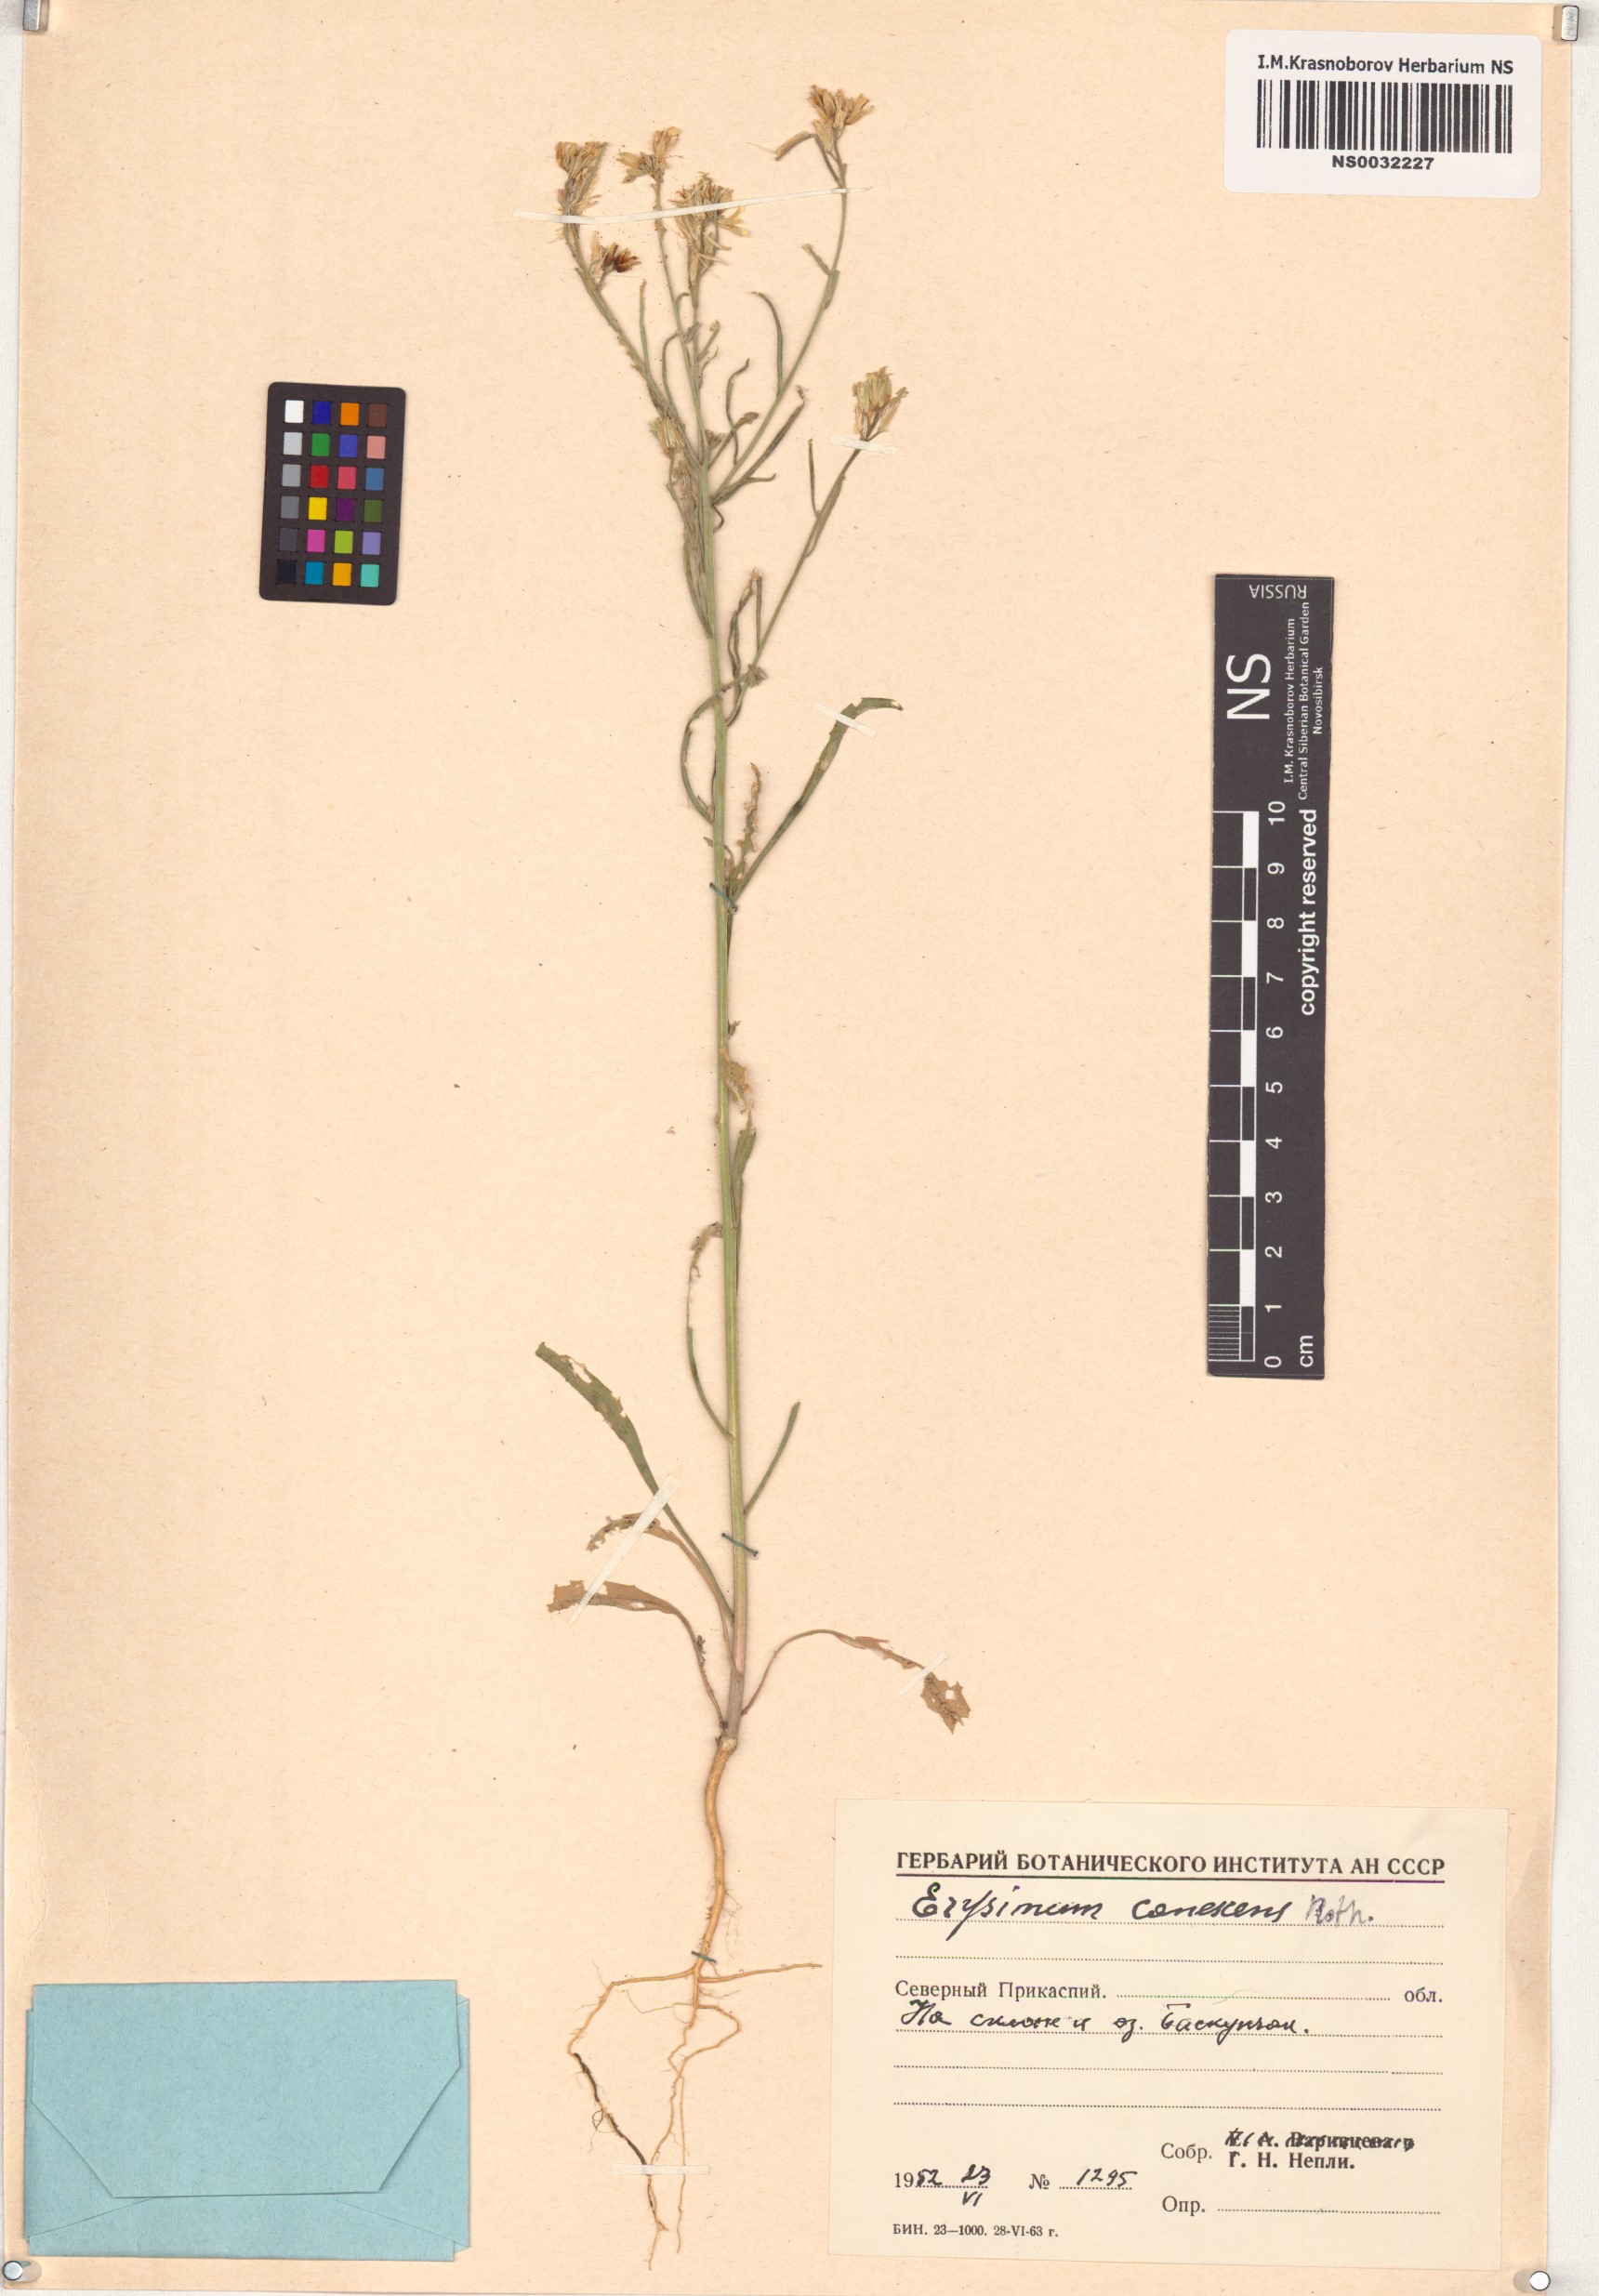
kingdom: Plantae
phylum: Tracheophyta
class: Magnoliopsida
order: Brassicales
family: Brassicaceae
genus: Erysimum
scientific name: Erysimum canescens
